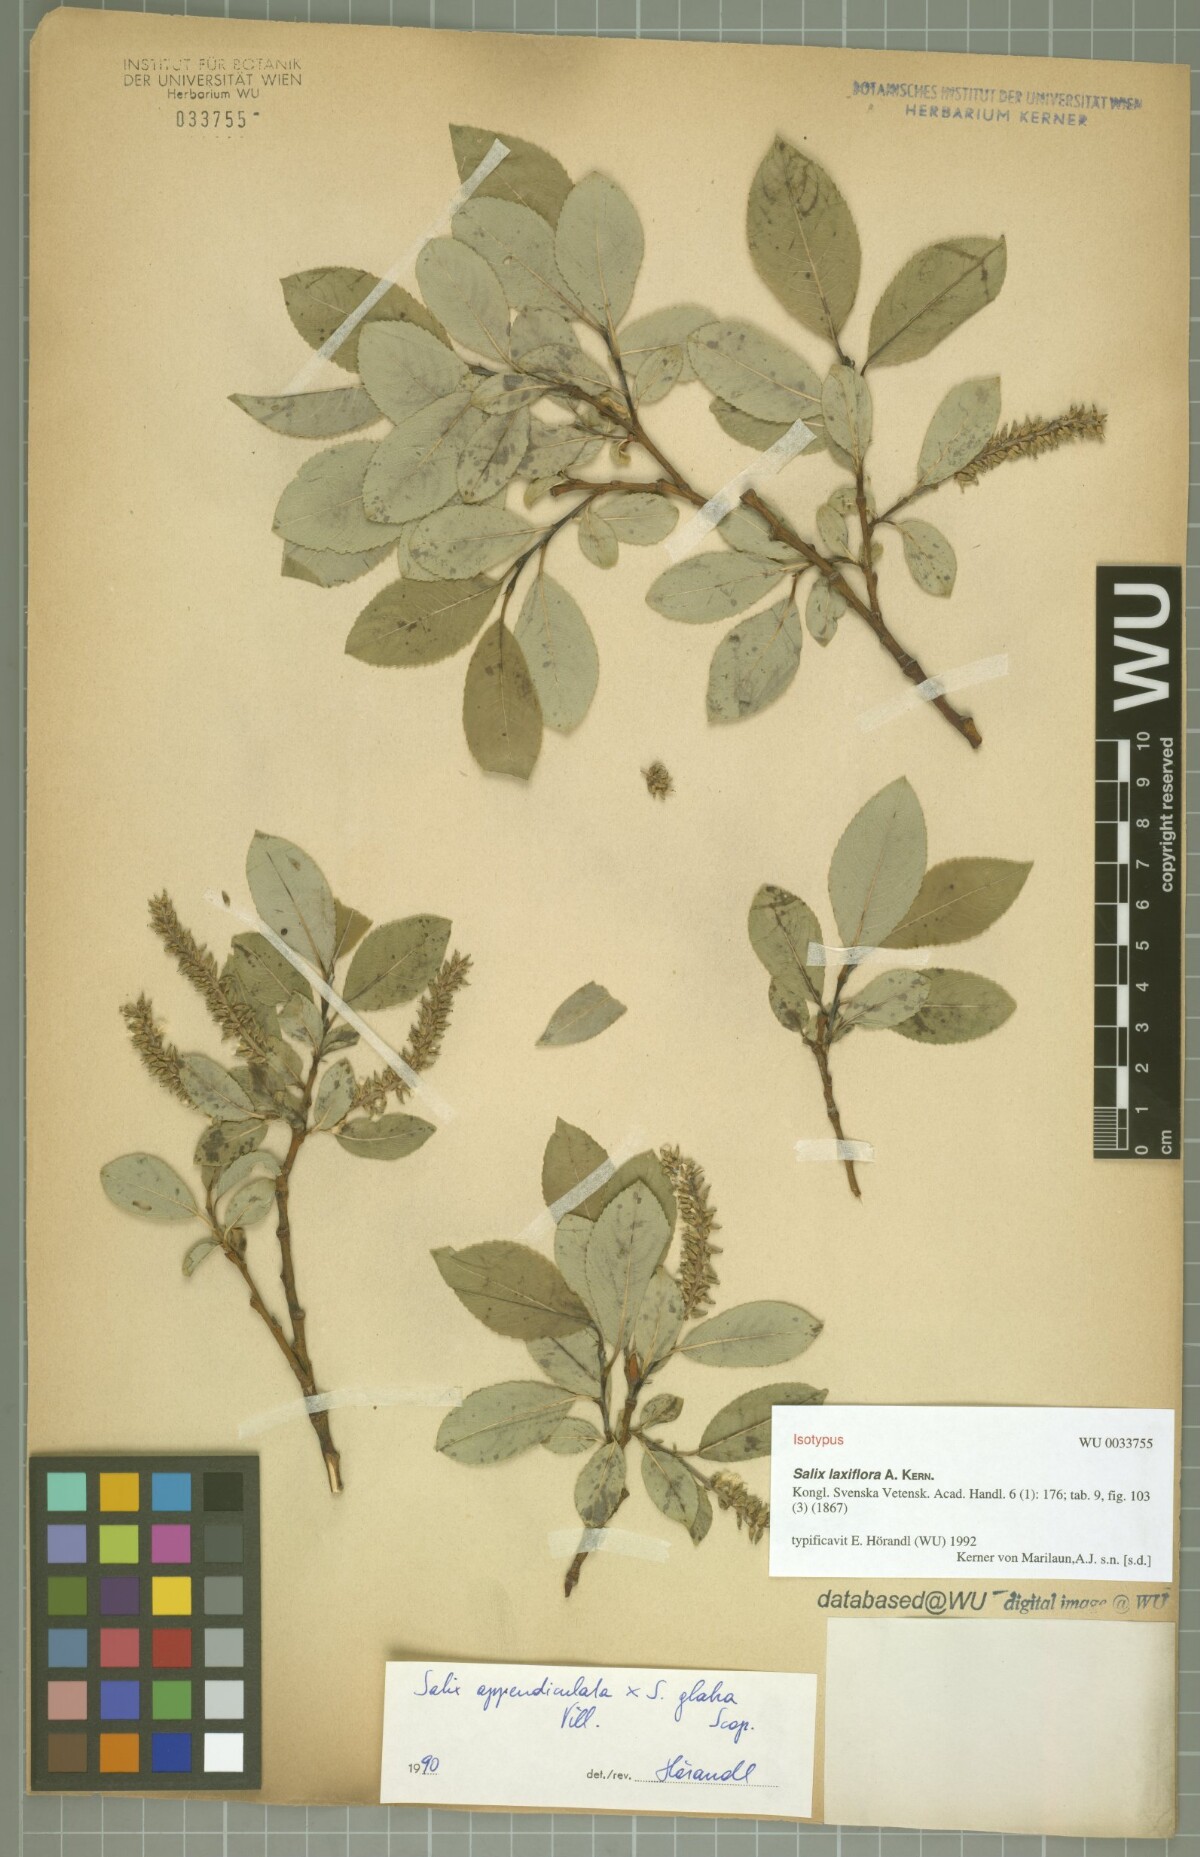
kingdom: Plantae
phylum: Tracheophyta
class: Magnoliopsida
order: Malpighiales
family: Salicaceae
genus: Salix
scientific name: Salix glabra
